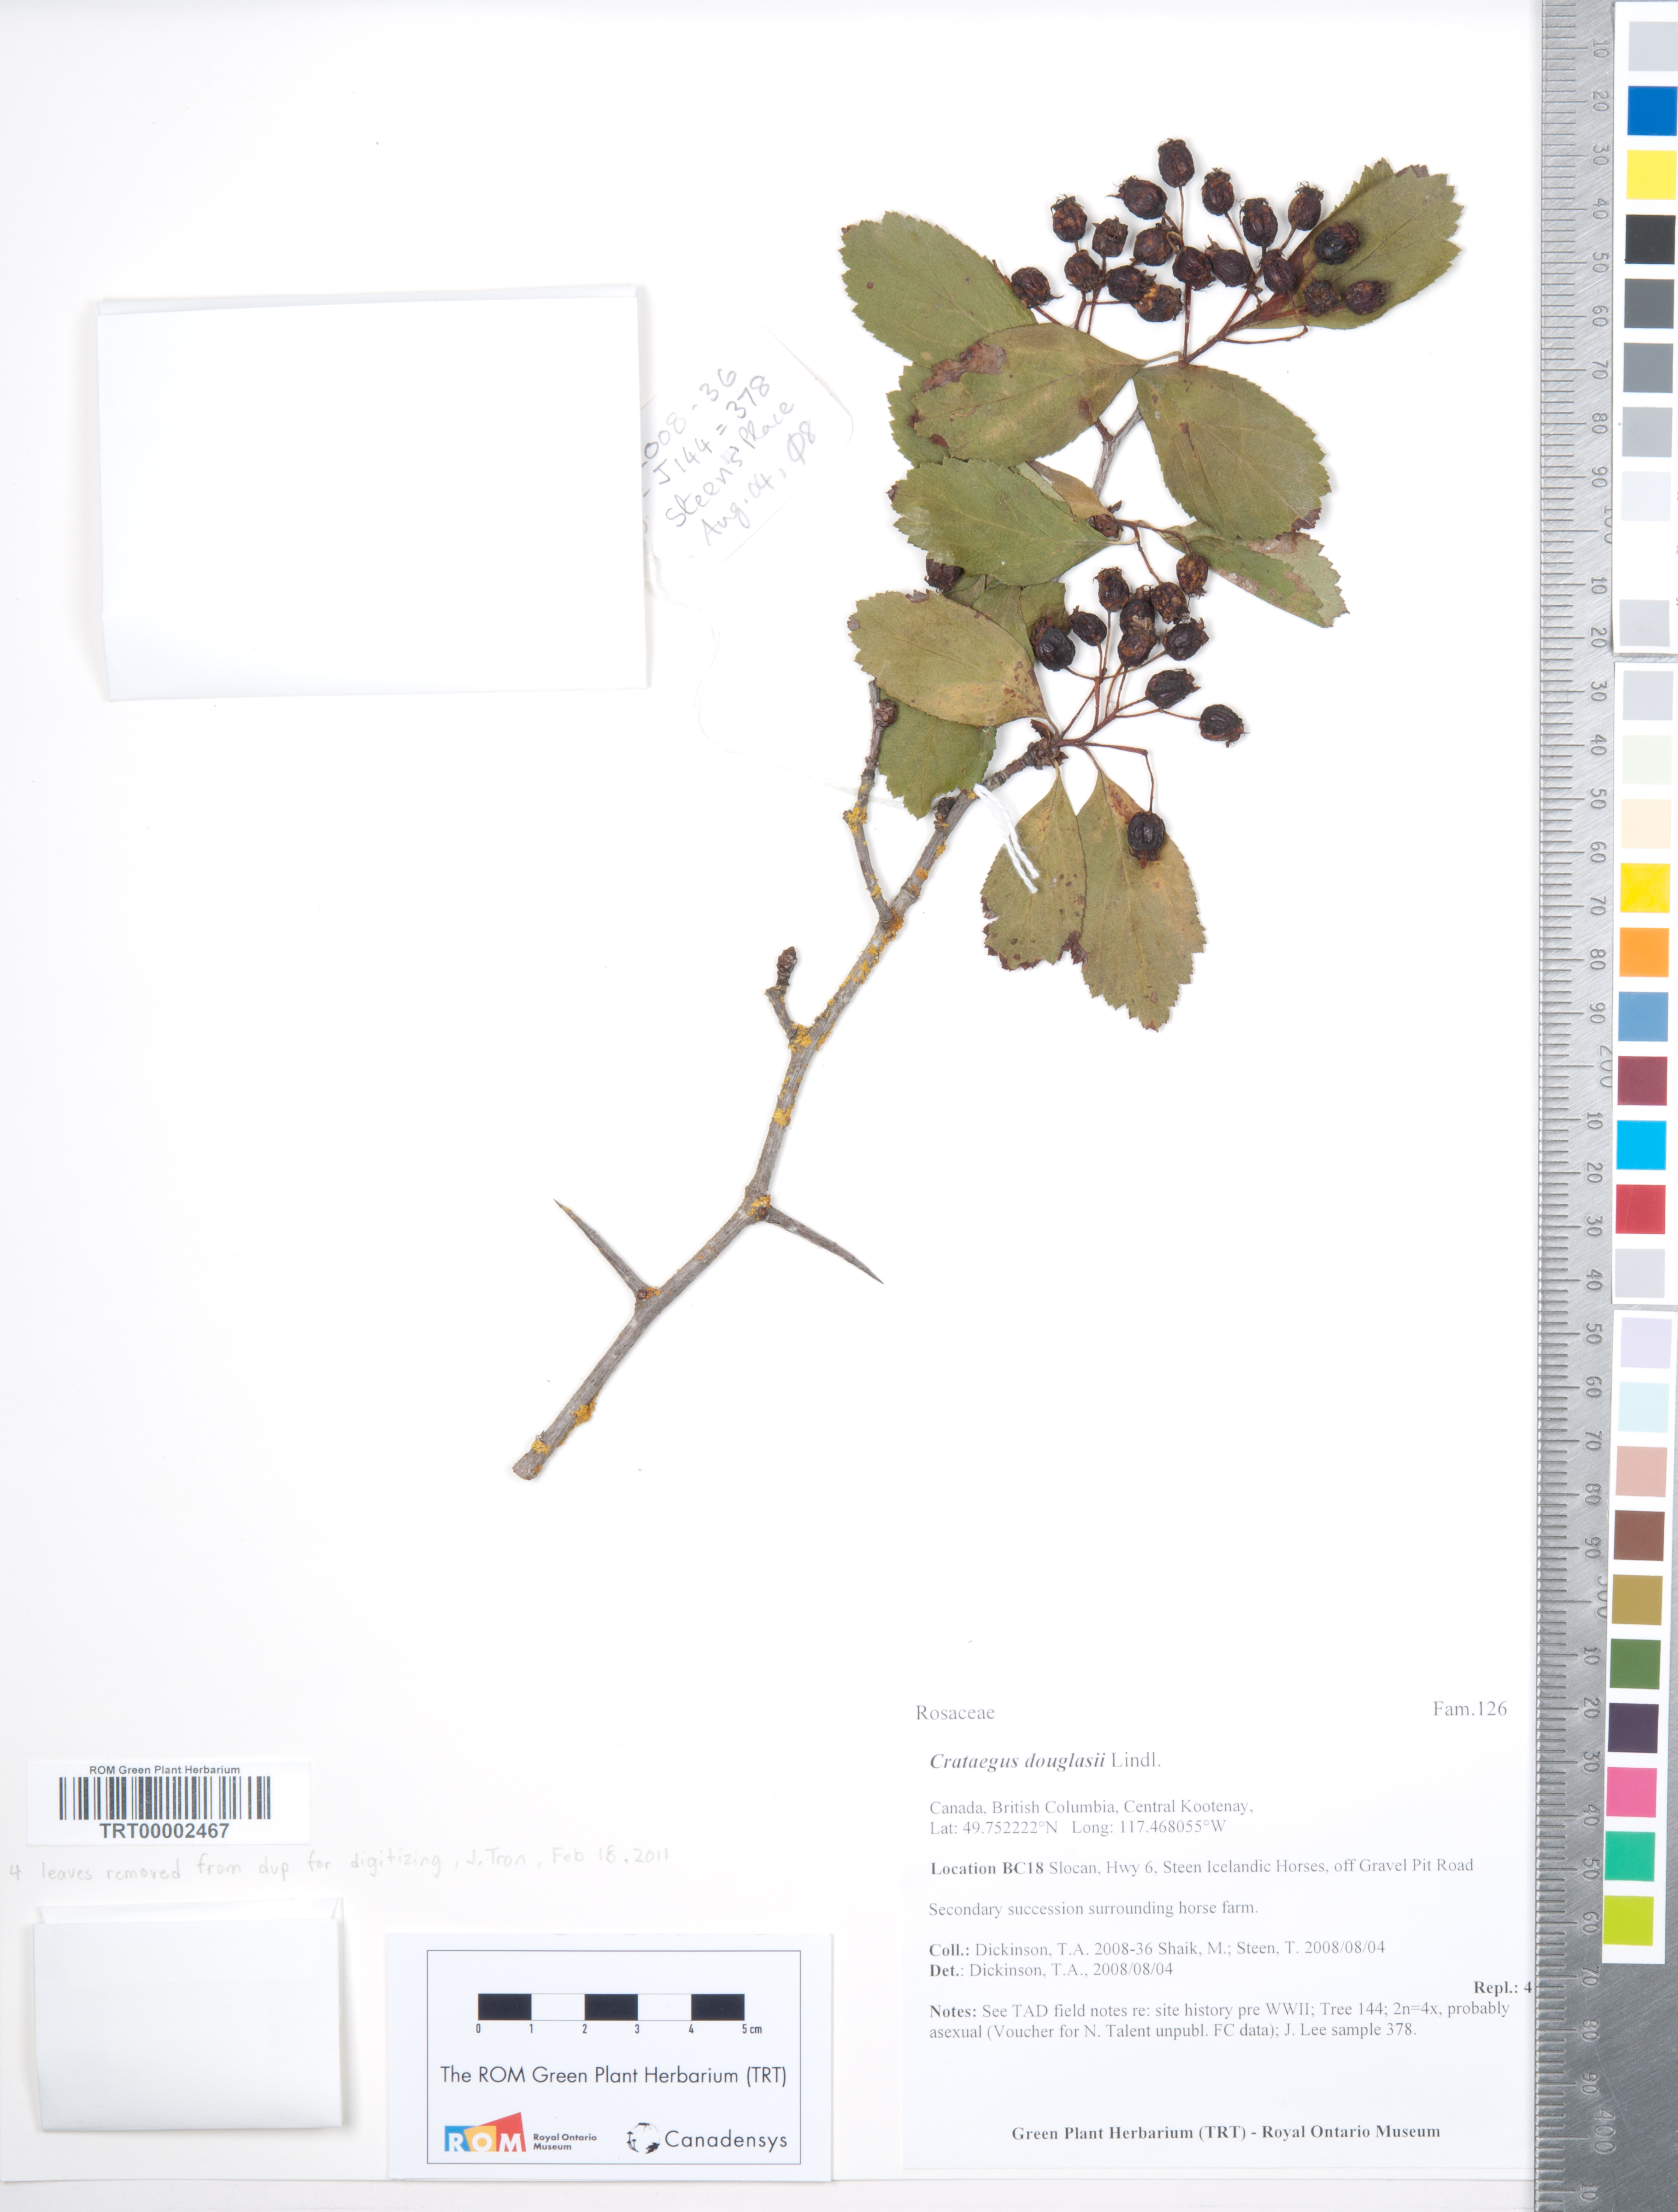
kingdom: Plantae
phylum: Tracheophyta
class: Magnoliopsida
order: Rosales
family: Rosaceae
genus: Crataegus
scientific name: Crataegus douglasii
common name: Black hawthorn
